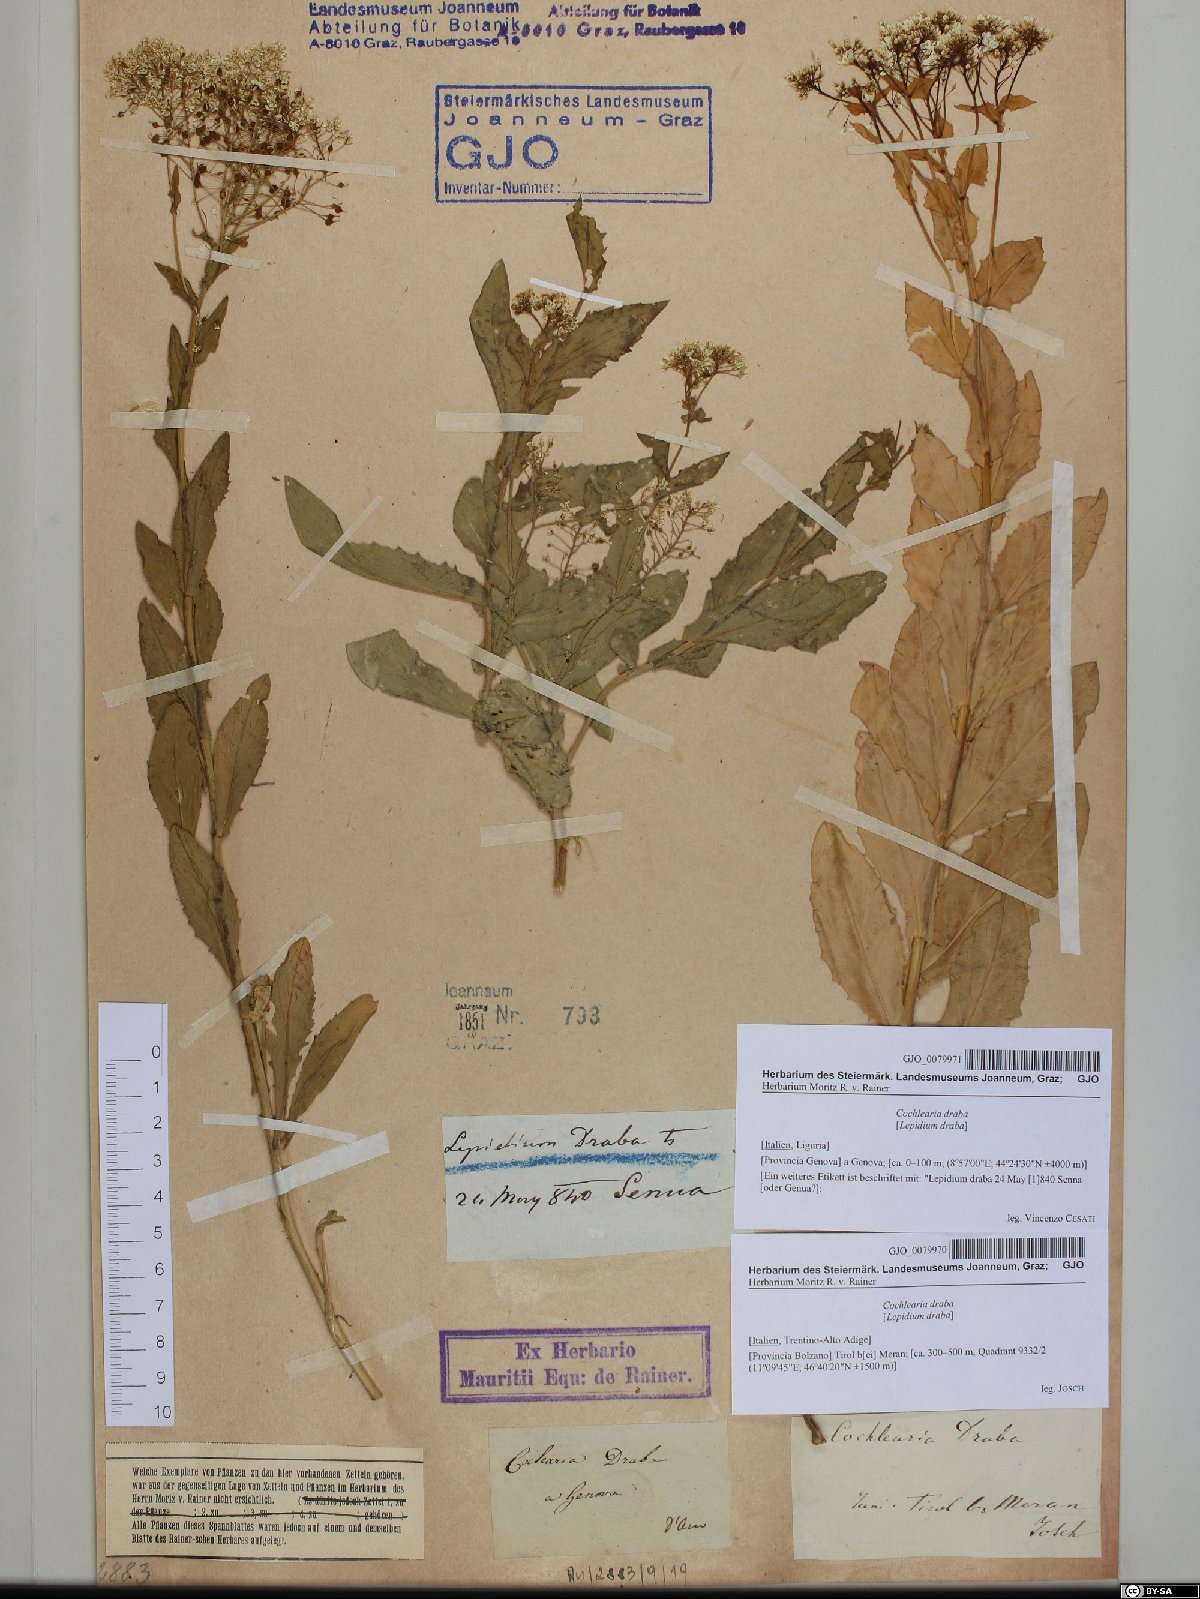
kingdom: Plantae
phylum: Tracheophyta
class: Magnoliopsida
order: Brassicales
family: Brassicaceae
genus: Lepidium
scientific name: Lepidium draba
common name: Hoary cress
